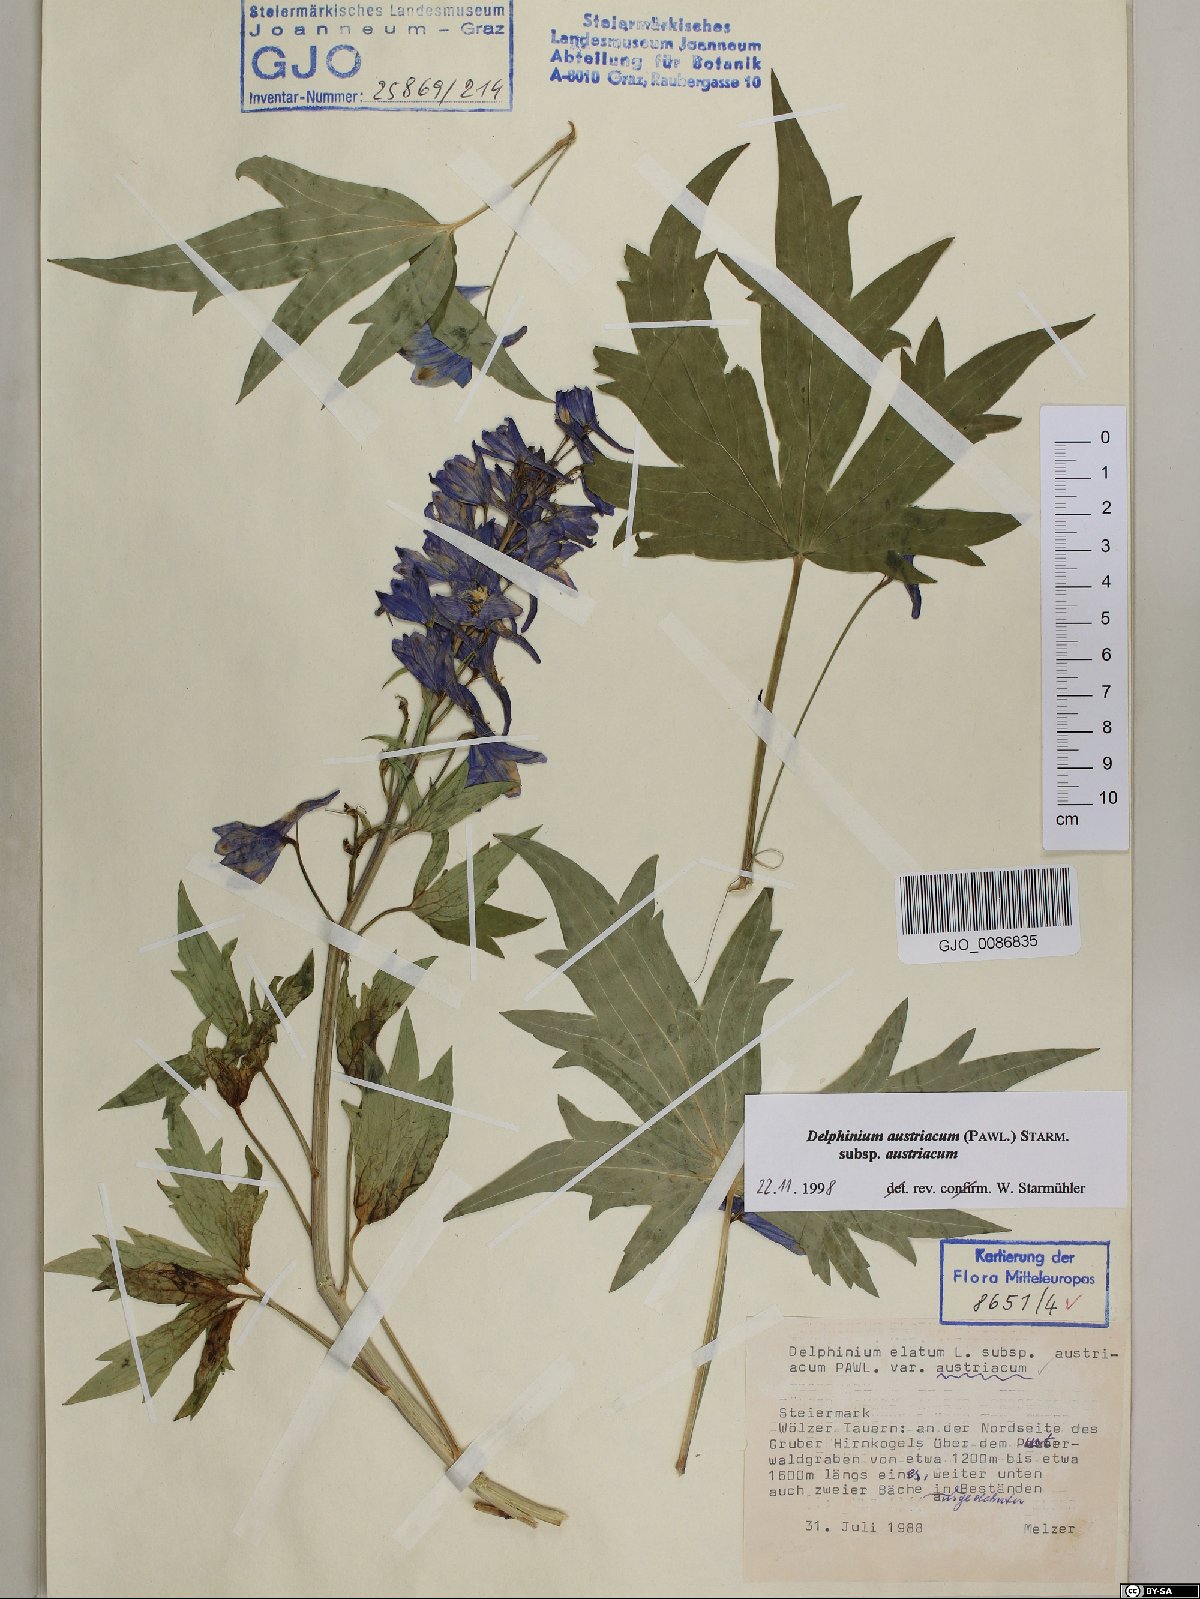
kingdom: Plantae
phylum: Tracheophyta
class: Magnoliopsida
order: Ranunculales
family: Ranunculaceae
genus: Delphinium
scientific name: Delphinium austriacum
